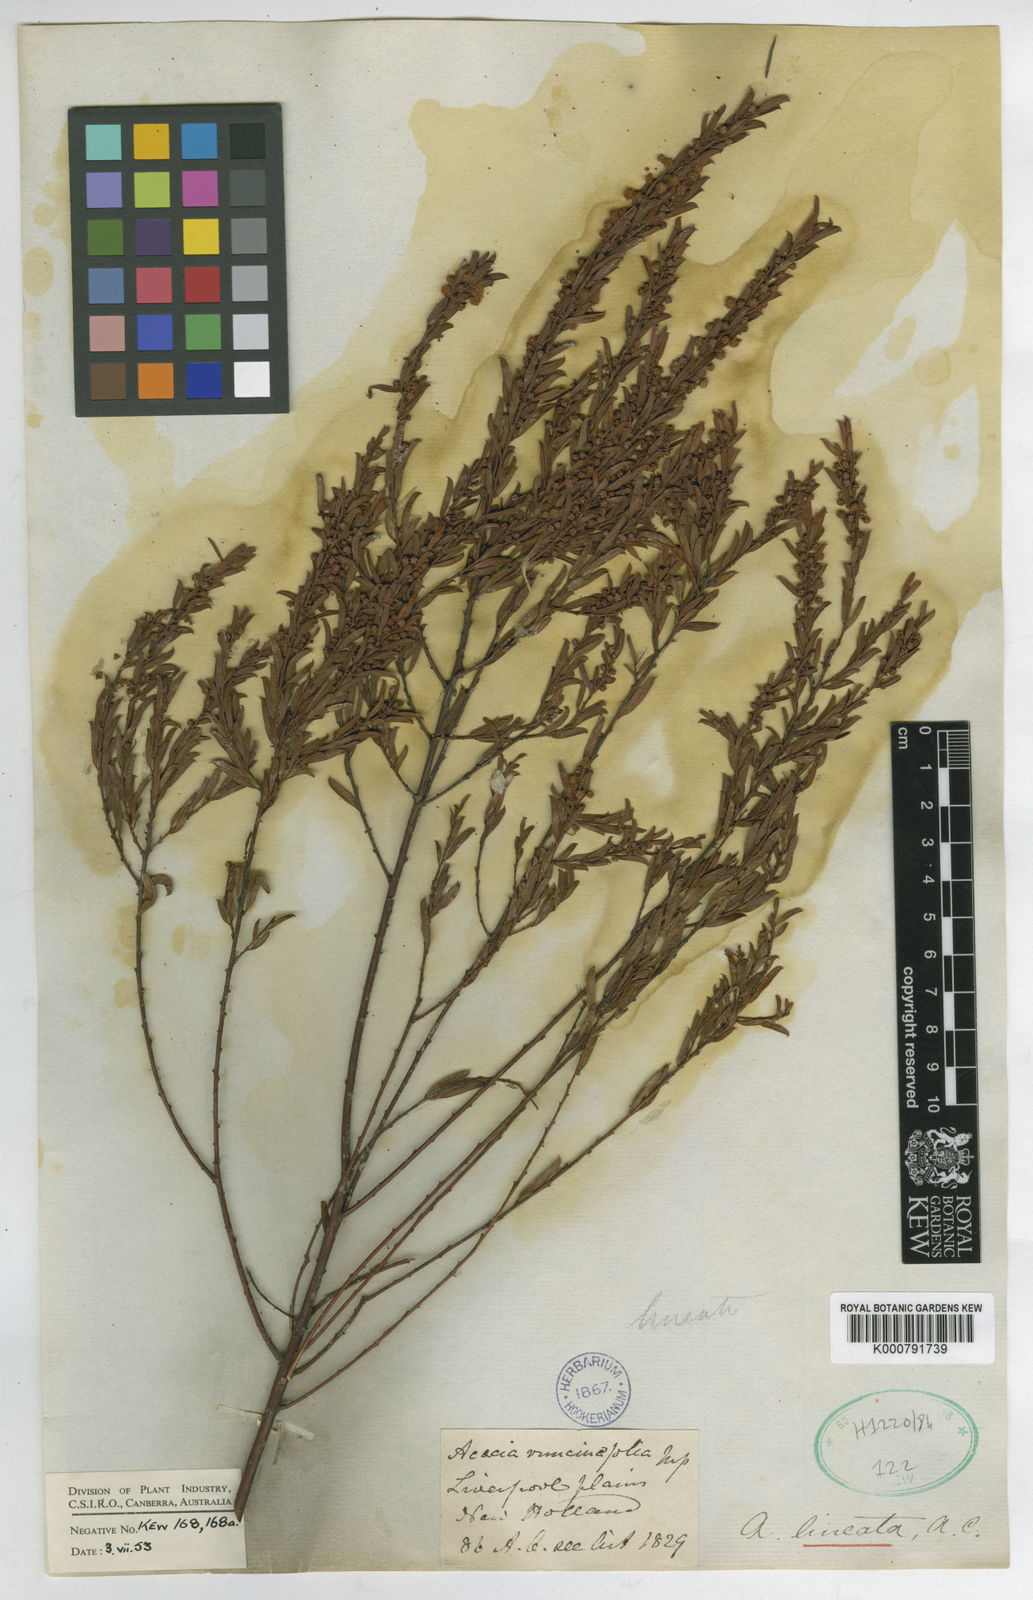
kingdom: Plantae
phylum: Tracheophyta
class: Magnoliopsida
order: Fabales
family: Fabaceae
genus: Acacia
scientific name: Acacia lineata
